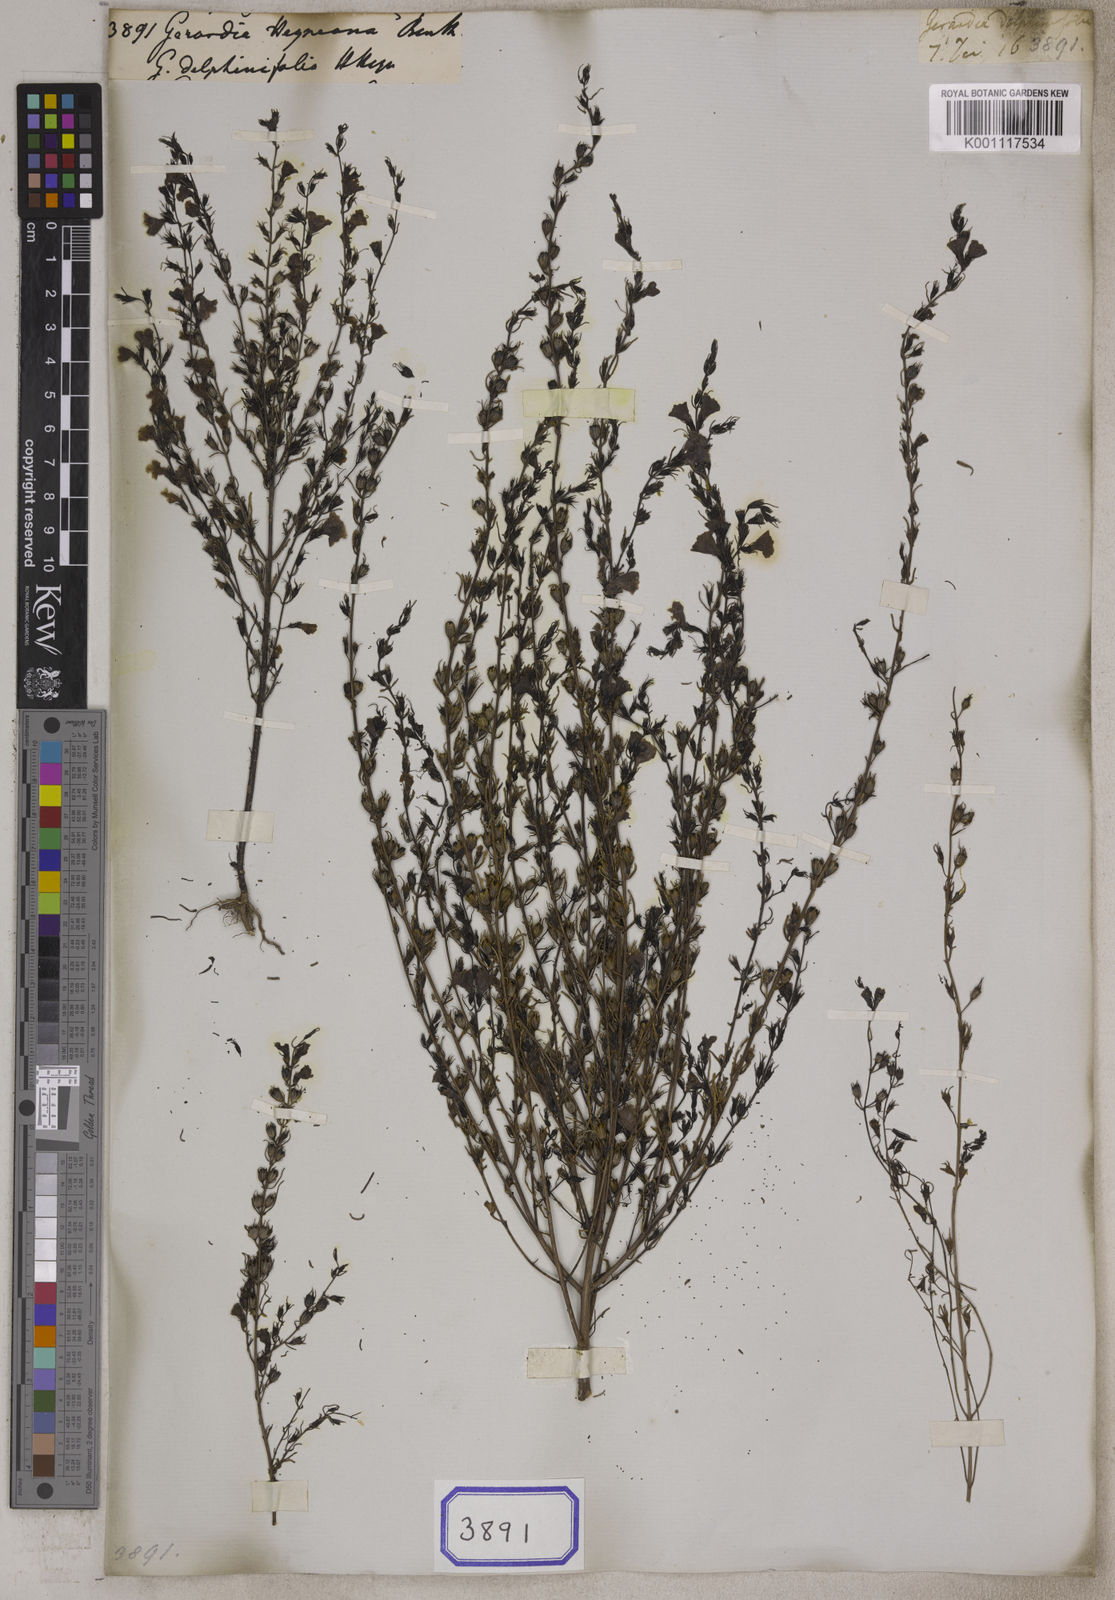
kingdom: Plantae
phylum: Tracheophyta
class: Magnoliopsida
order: Lamiales
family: Orobanchaceae
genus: Parasopubia
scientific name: Parasopubia delphiniifolia
